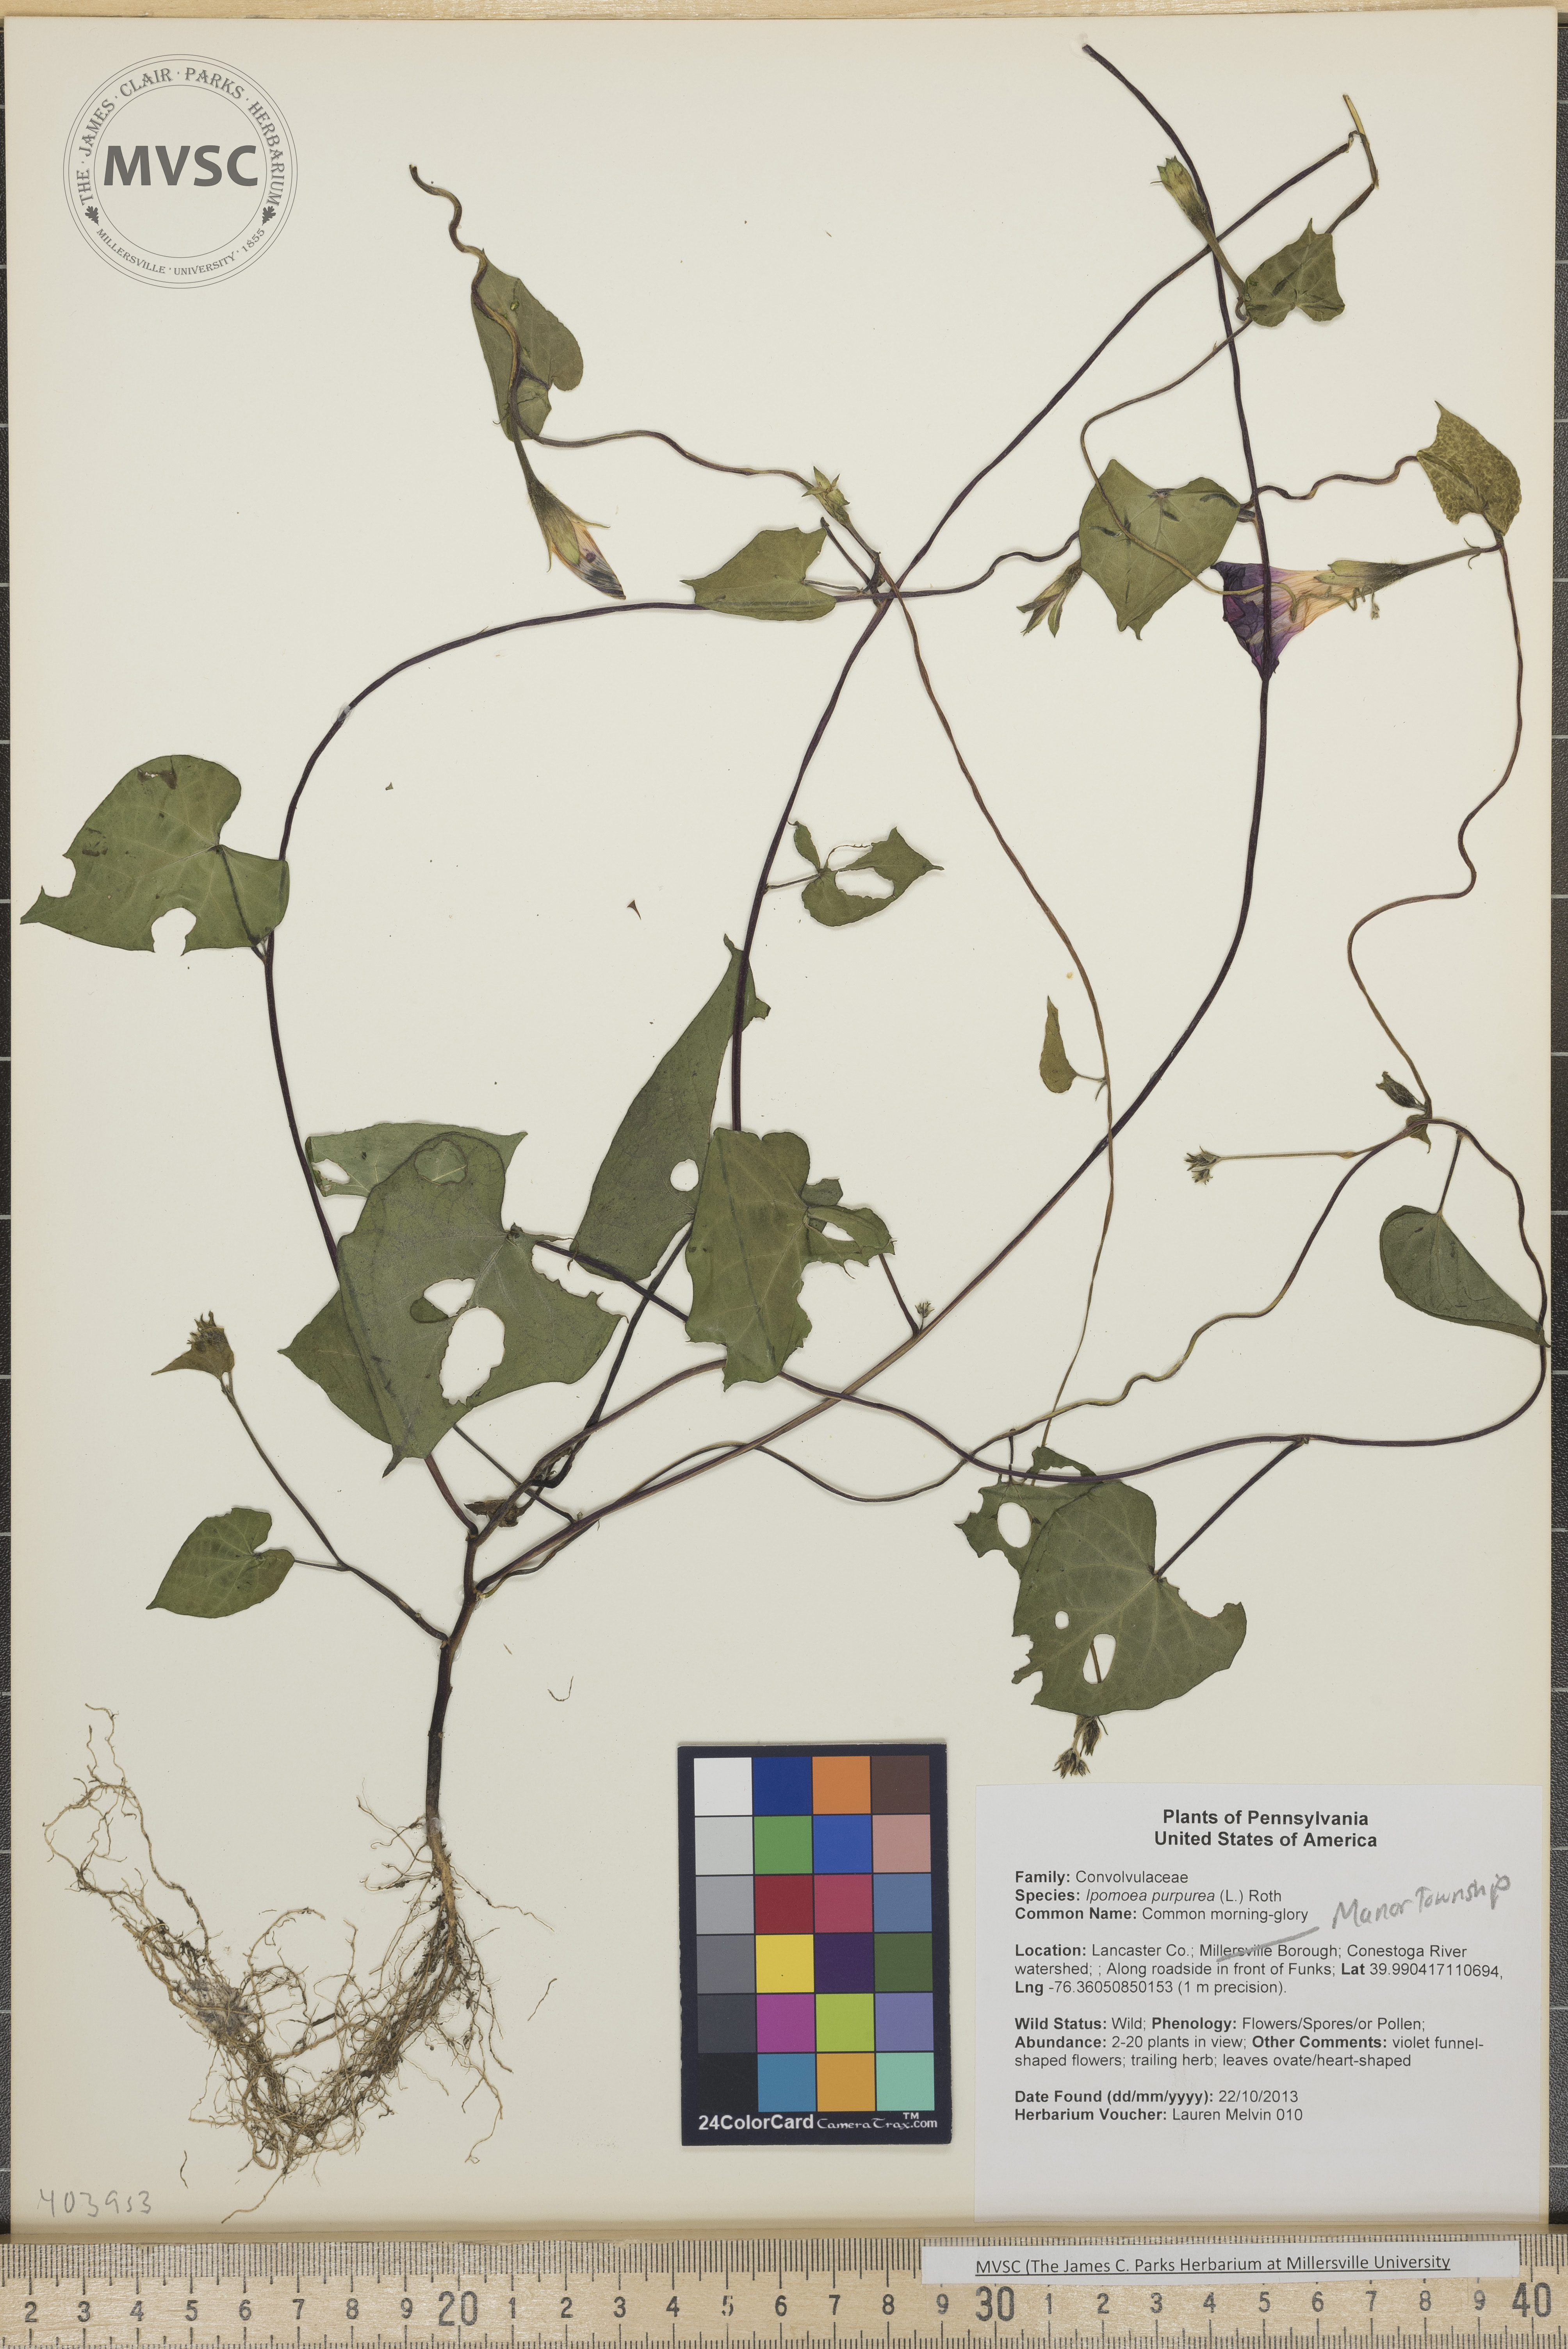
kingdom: Plantae
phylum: Tracheophyta
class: Magnoliopsida
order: Solanales
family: Convolvulaceae
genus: Ipomoea
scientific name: Ipomoea purpurea
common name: Common morning-glory
